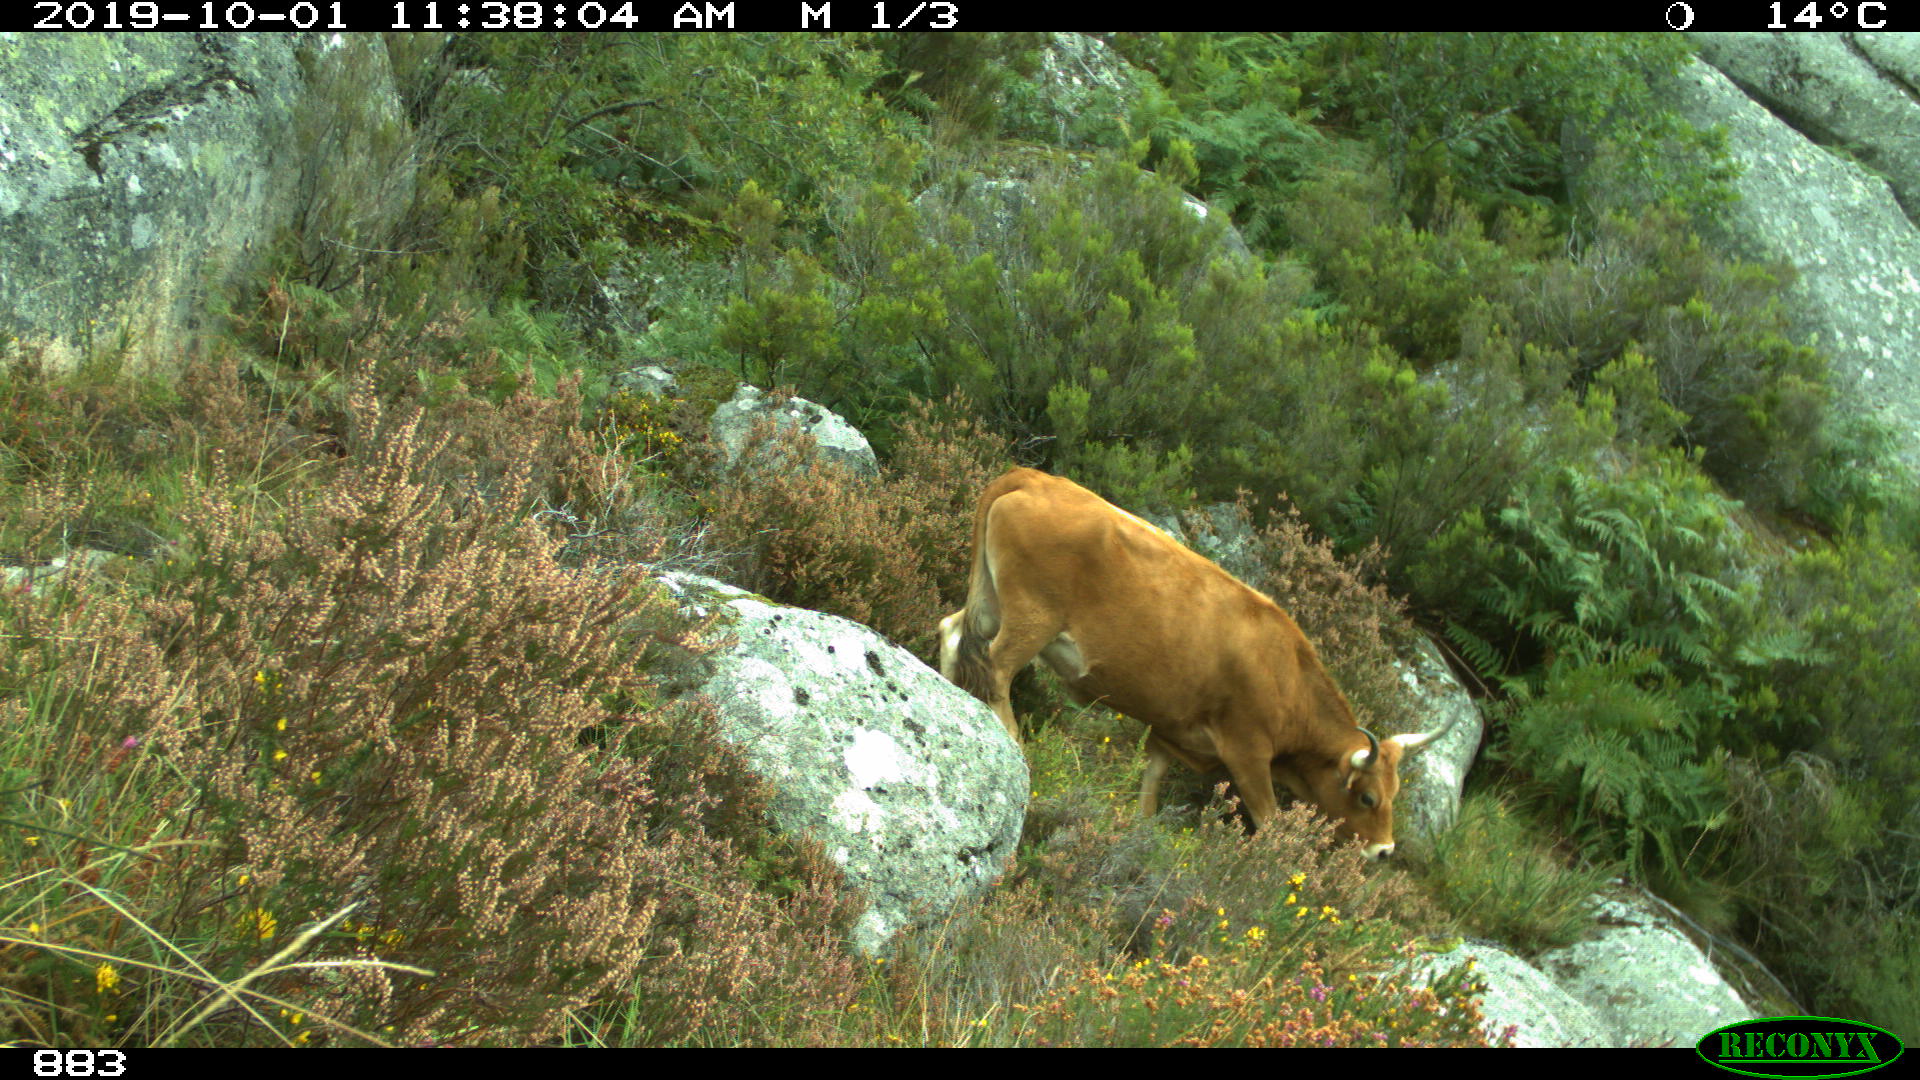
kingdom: Animalia
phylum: Chordata
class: Mammalia
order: Artiodactyla
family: Bovidae
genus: Bos
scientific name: Bos taurus
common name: Domesticated cattle
